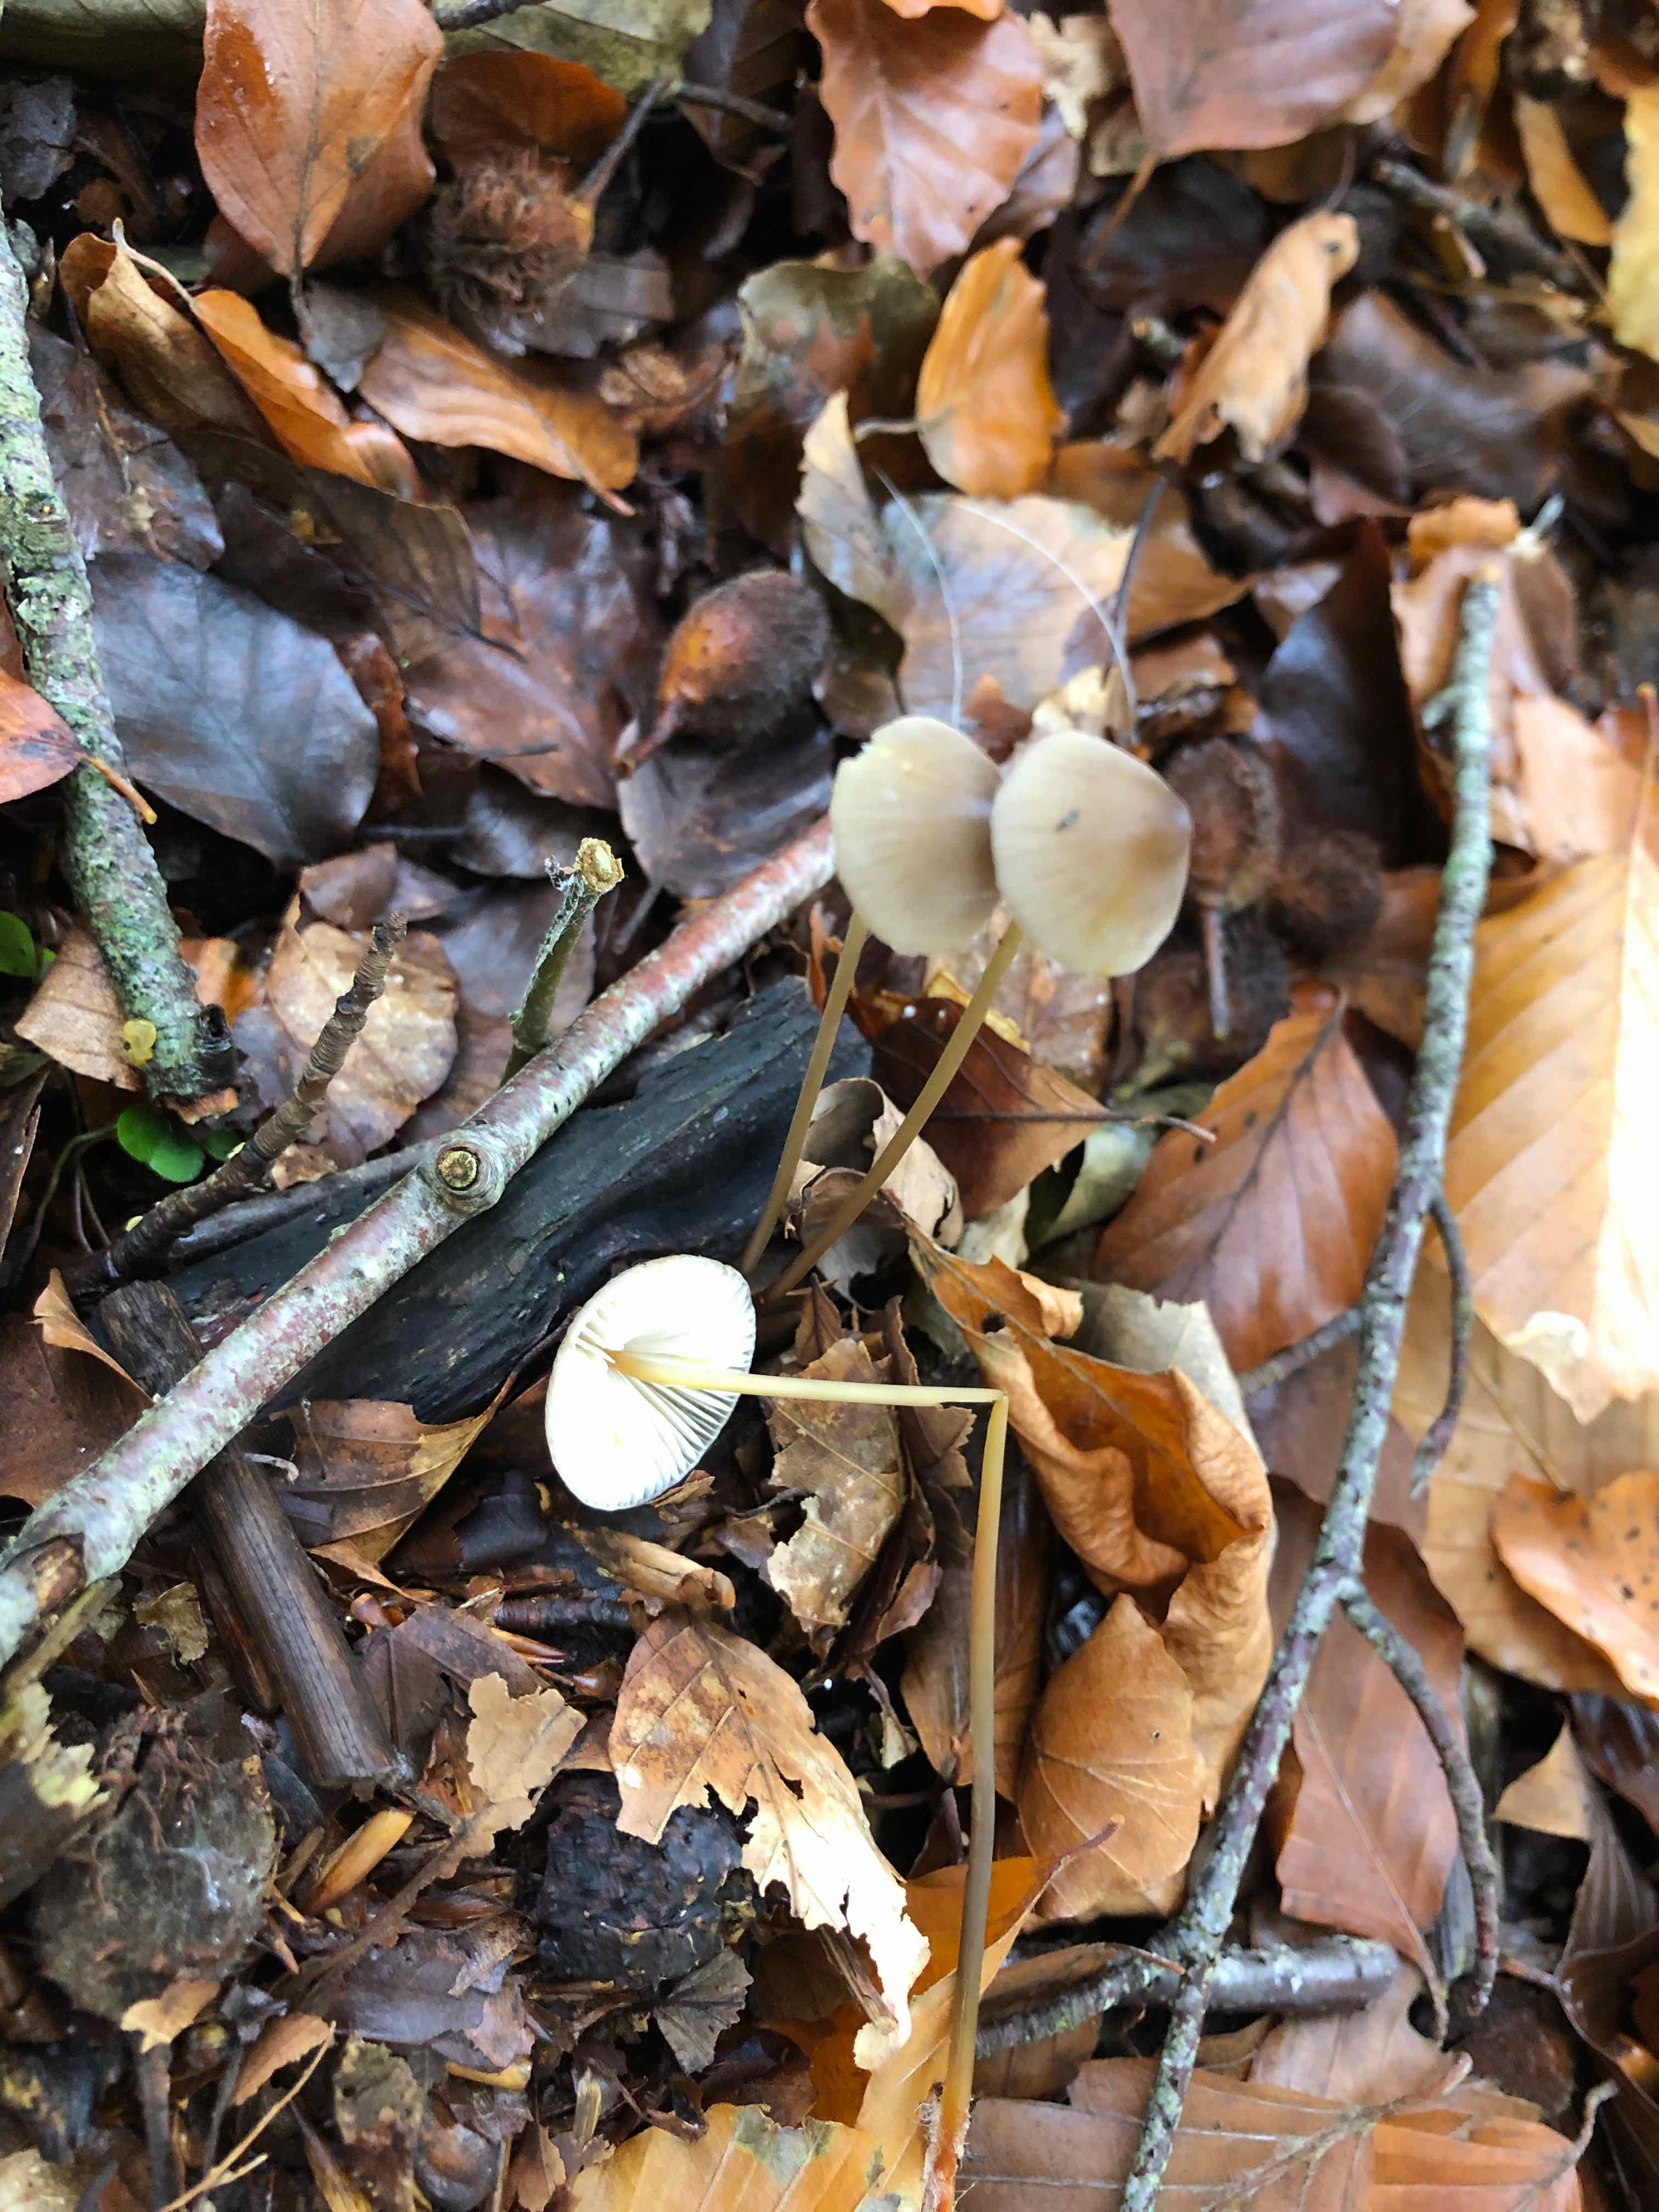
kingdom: Fungi
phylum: Basidiomycota
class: Agaricomycetes
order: Agaricales
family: Mycenaceae
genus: Mycena
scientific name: Mycena crocata
